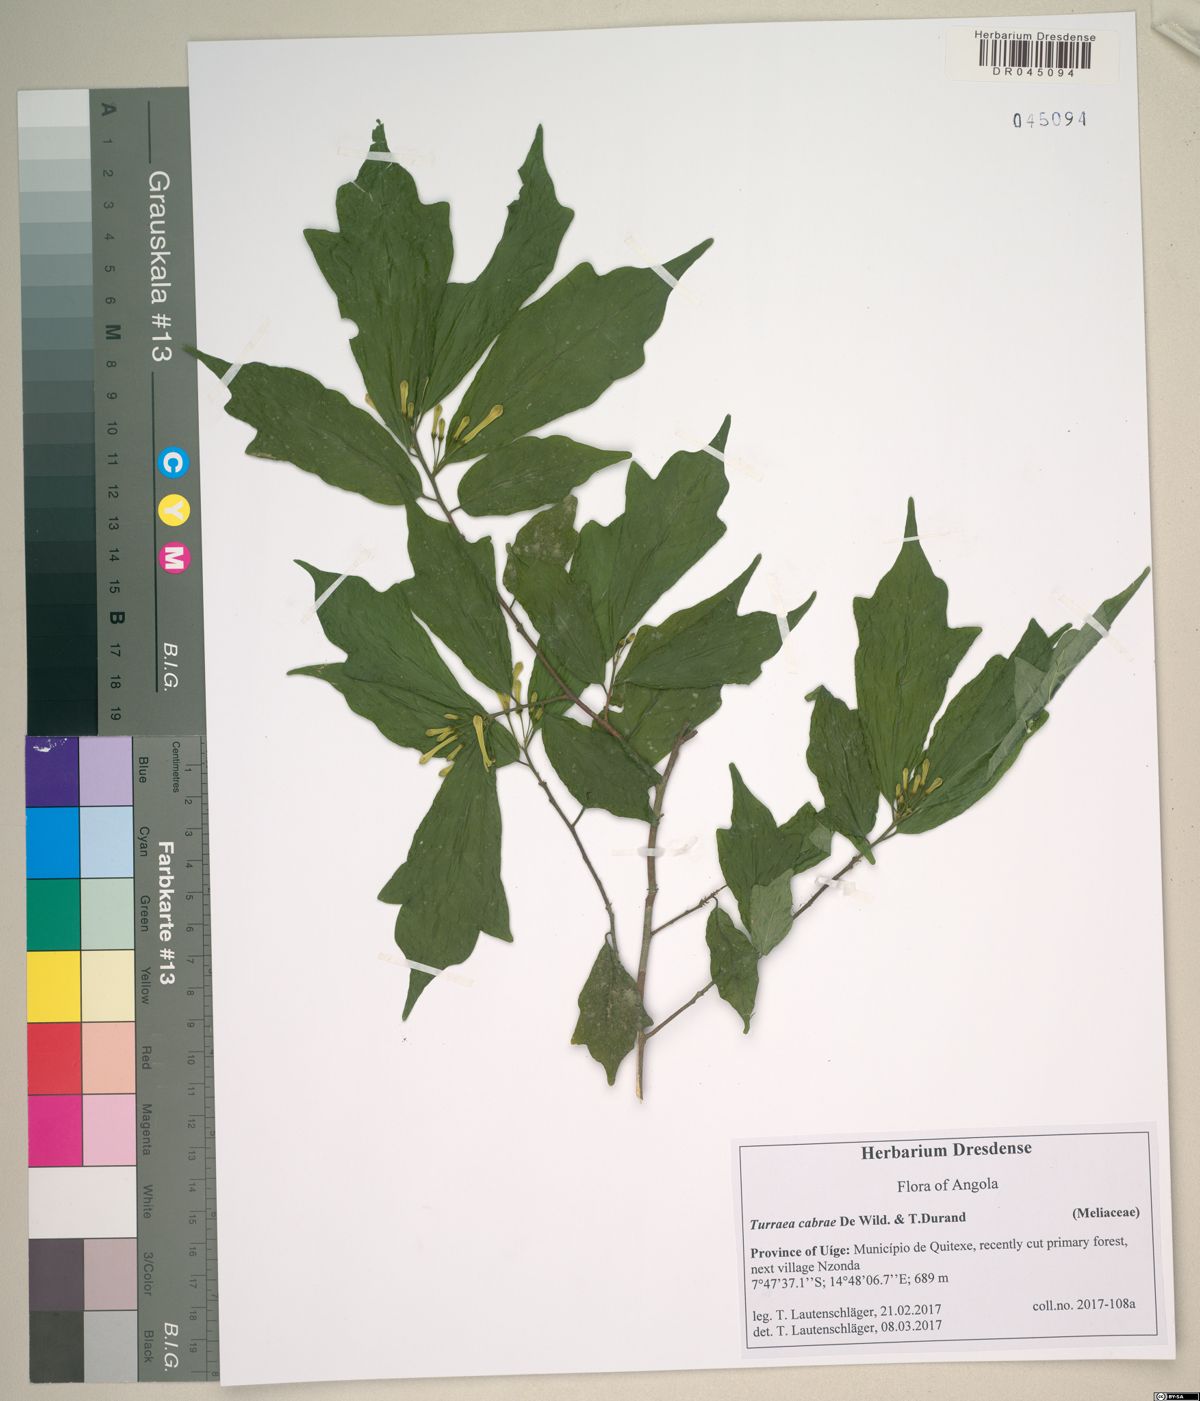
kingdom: Plantae
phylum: Tracheophyta
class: Magnoliopsida
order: Sapindales
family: Meliaceae
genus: Turraea
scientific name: Turraea cabrae
